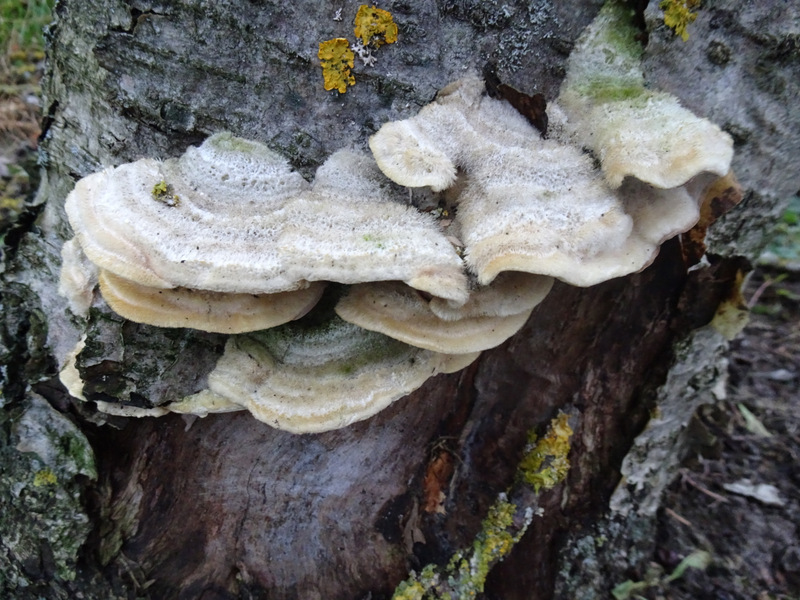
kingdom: Fungi
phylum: Basidiomycota
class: Agaricomycetes
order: Polyporales
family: Polyporaceae
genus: Trametes
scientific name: Trametes hirsuta
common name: håret læderporesvamp
